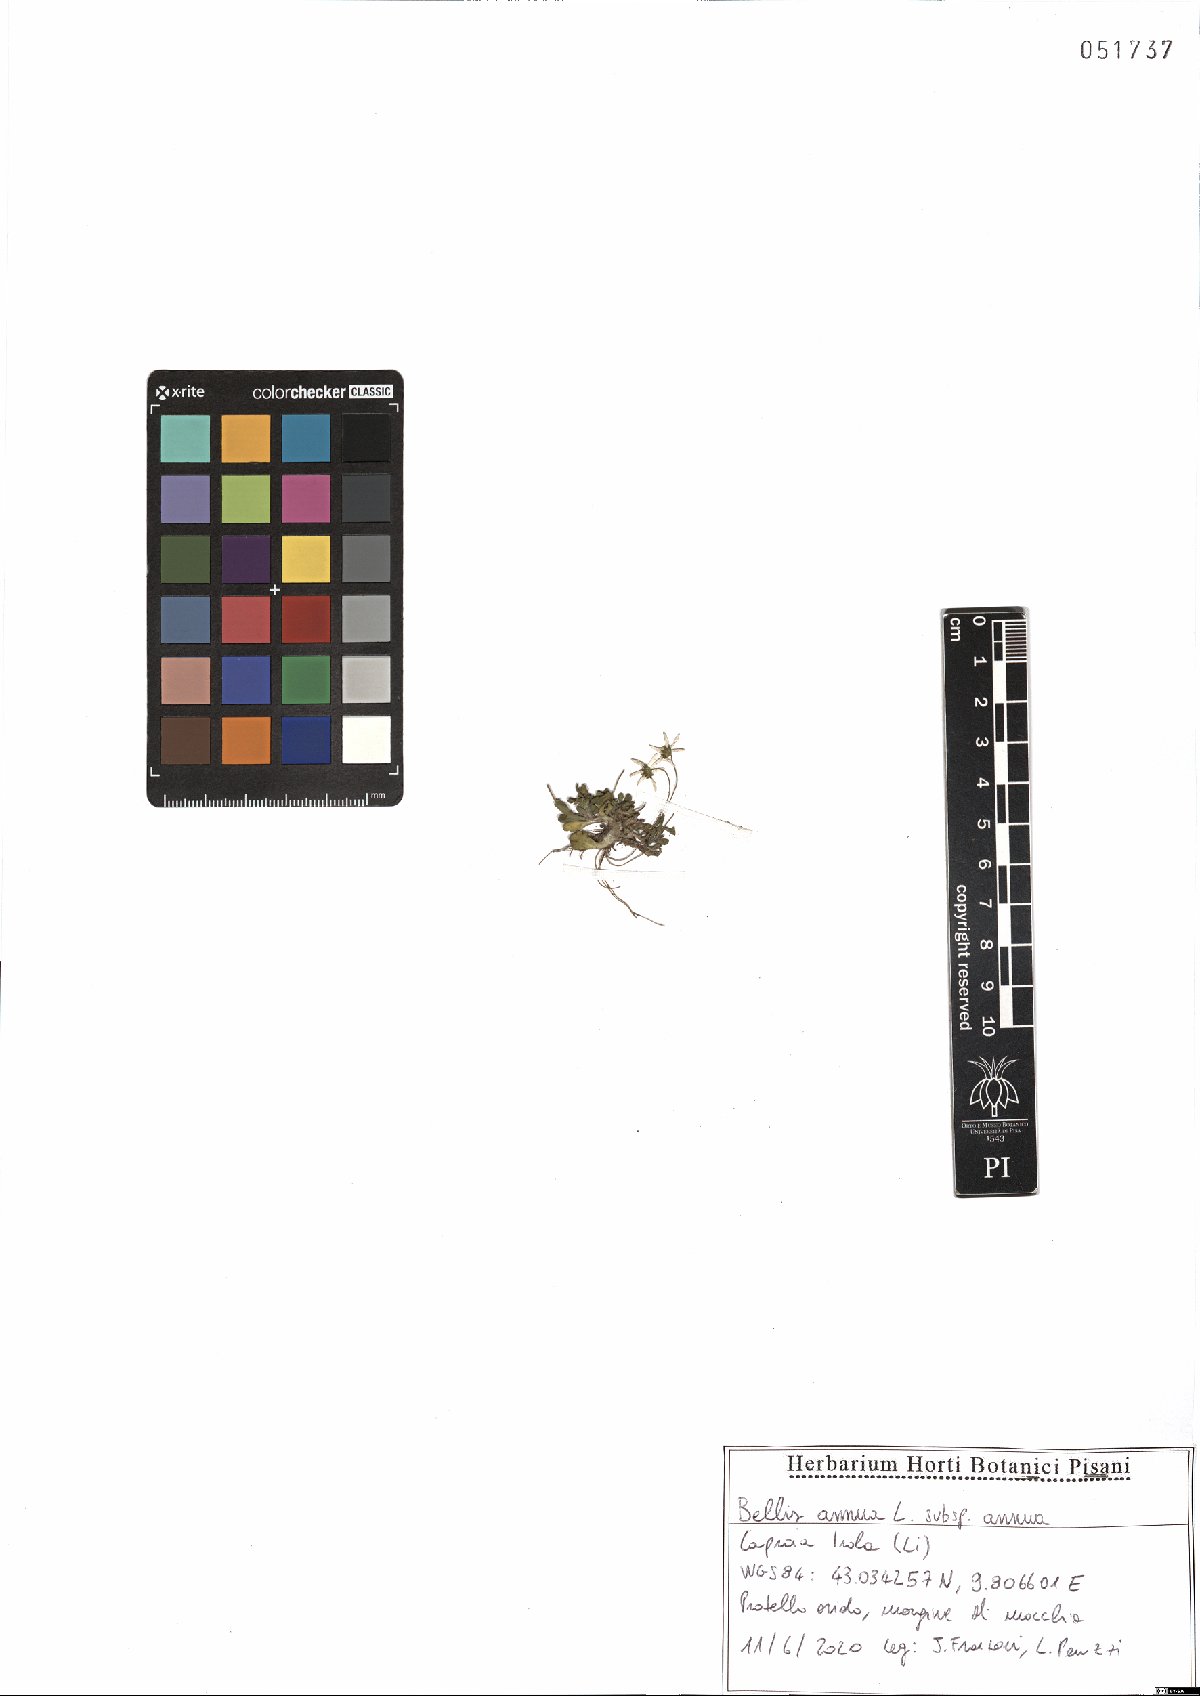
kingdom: Plantae
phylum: Tracheophyta
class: Magnoliopsida
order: Asterales
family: Asteraceae
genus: Bellis
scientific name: Bellis annua
